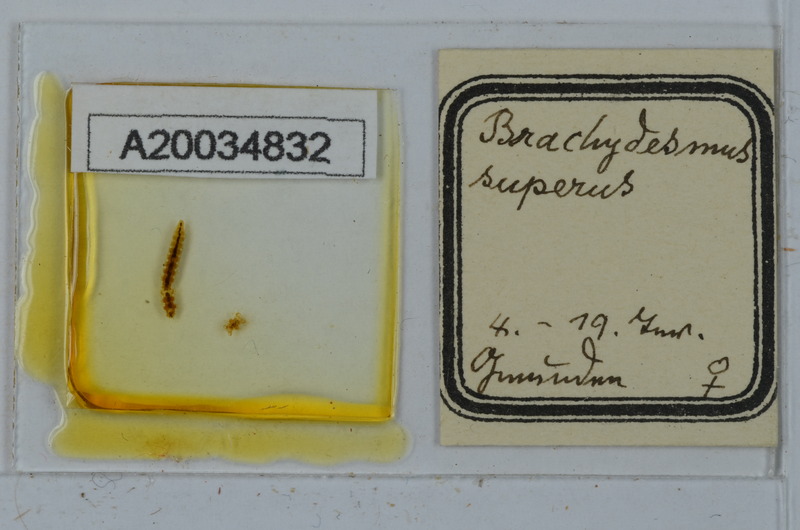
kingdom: Animalia
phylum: Arthropoda
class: Diplopoda
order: Polydesmida
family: Polydesmidae
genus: Brachydesmus
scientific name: Brachydesmus superus
